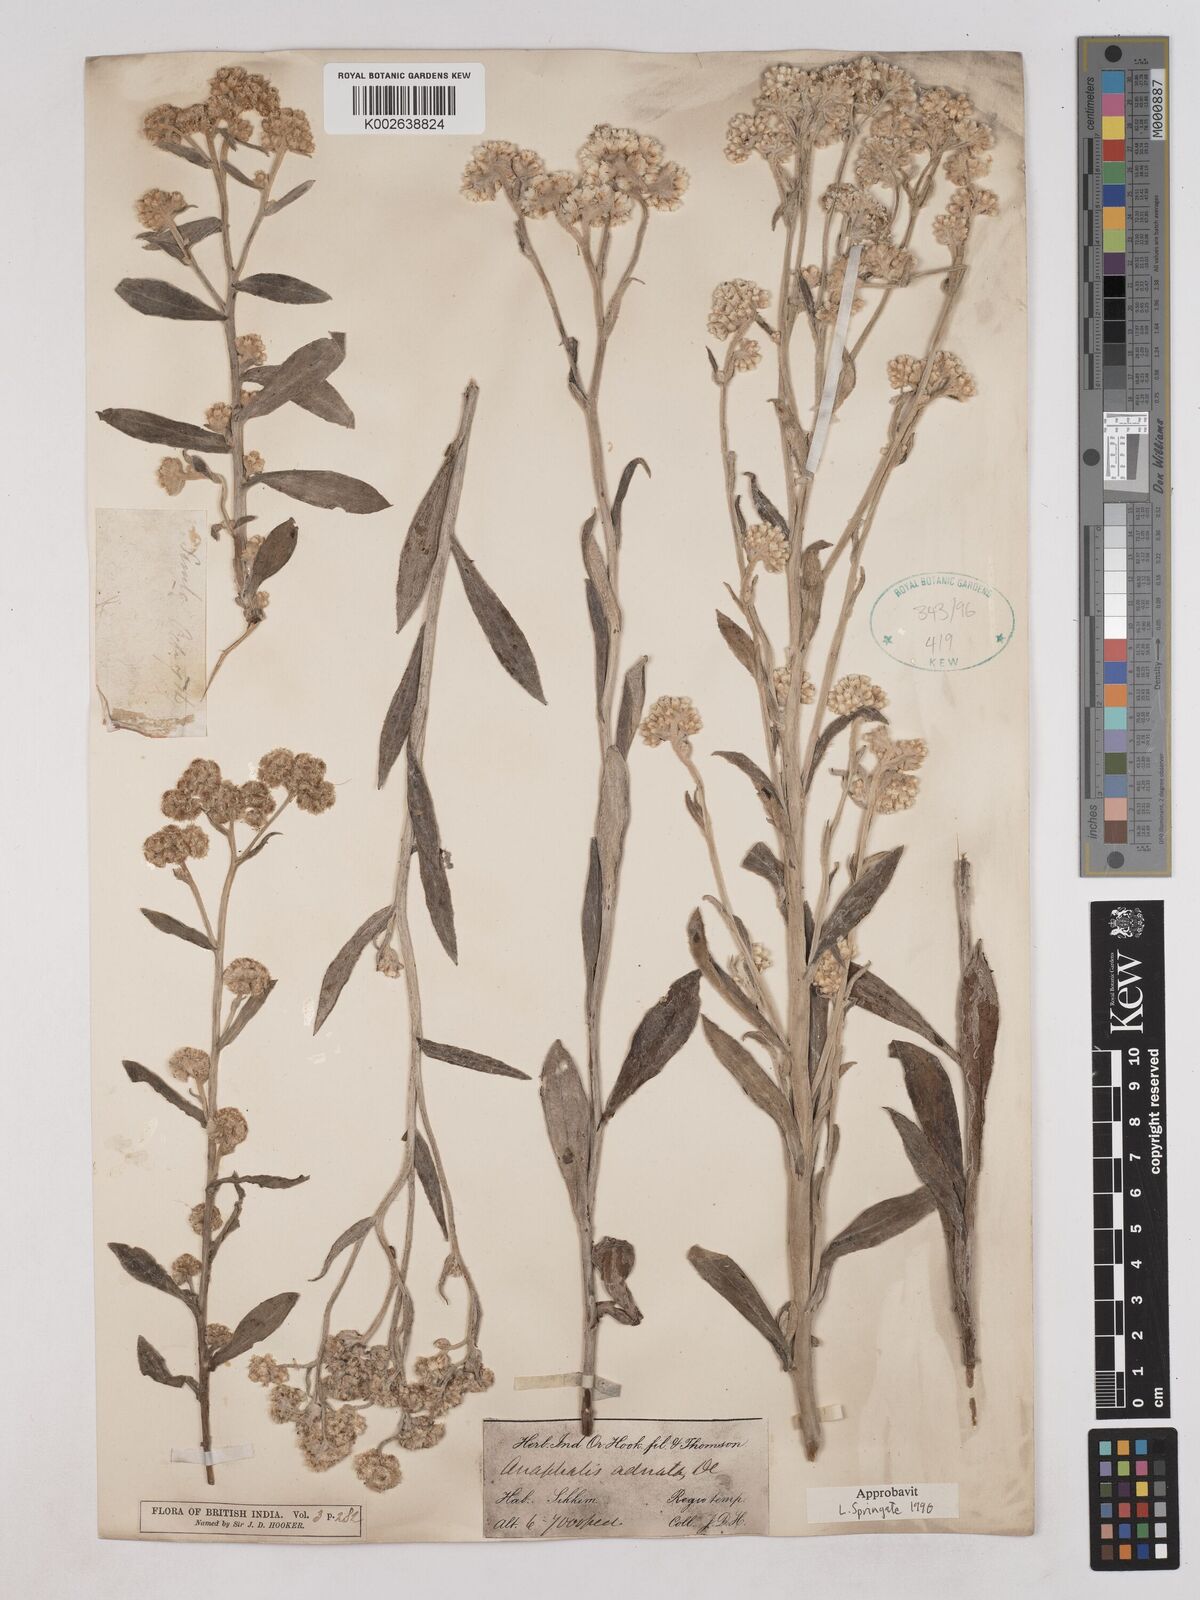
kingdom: Plantae
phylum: Tracheophyta
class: Magnoliopsida
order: Asterales
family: Asteraceae
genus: Pseudognaphalium
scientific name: Pseudognaphalium adnatum
